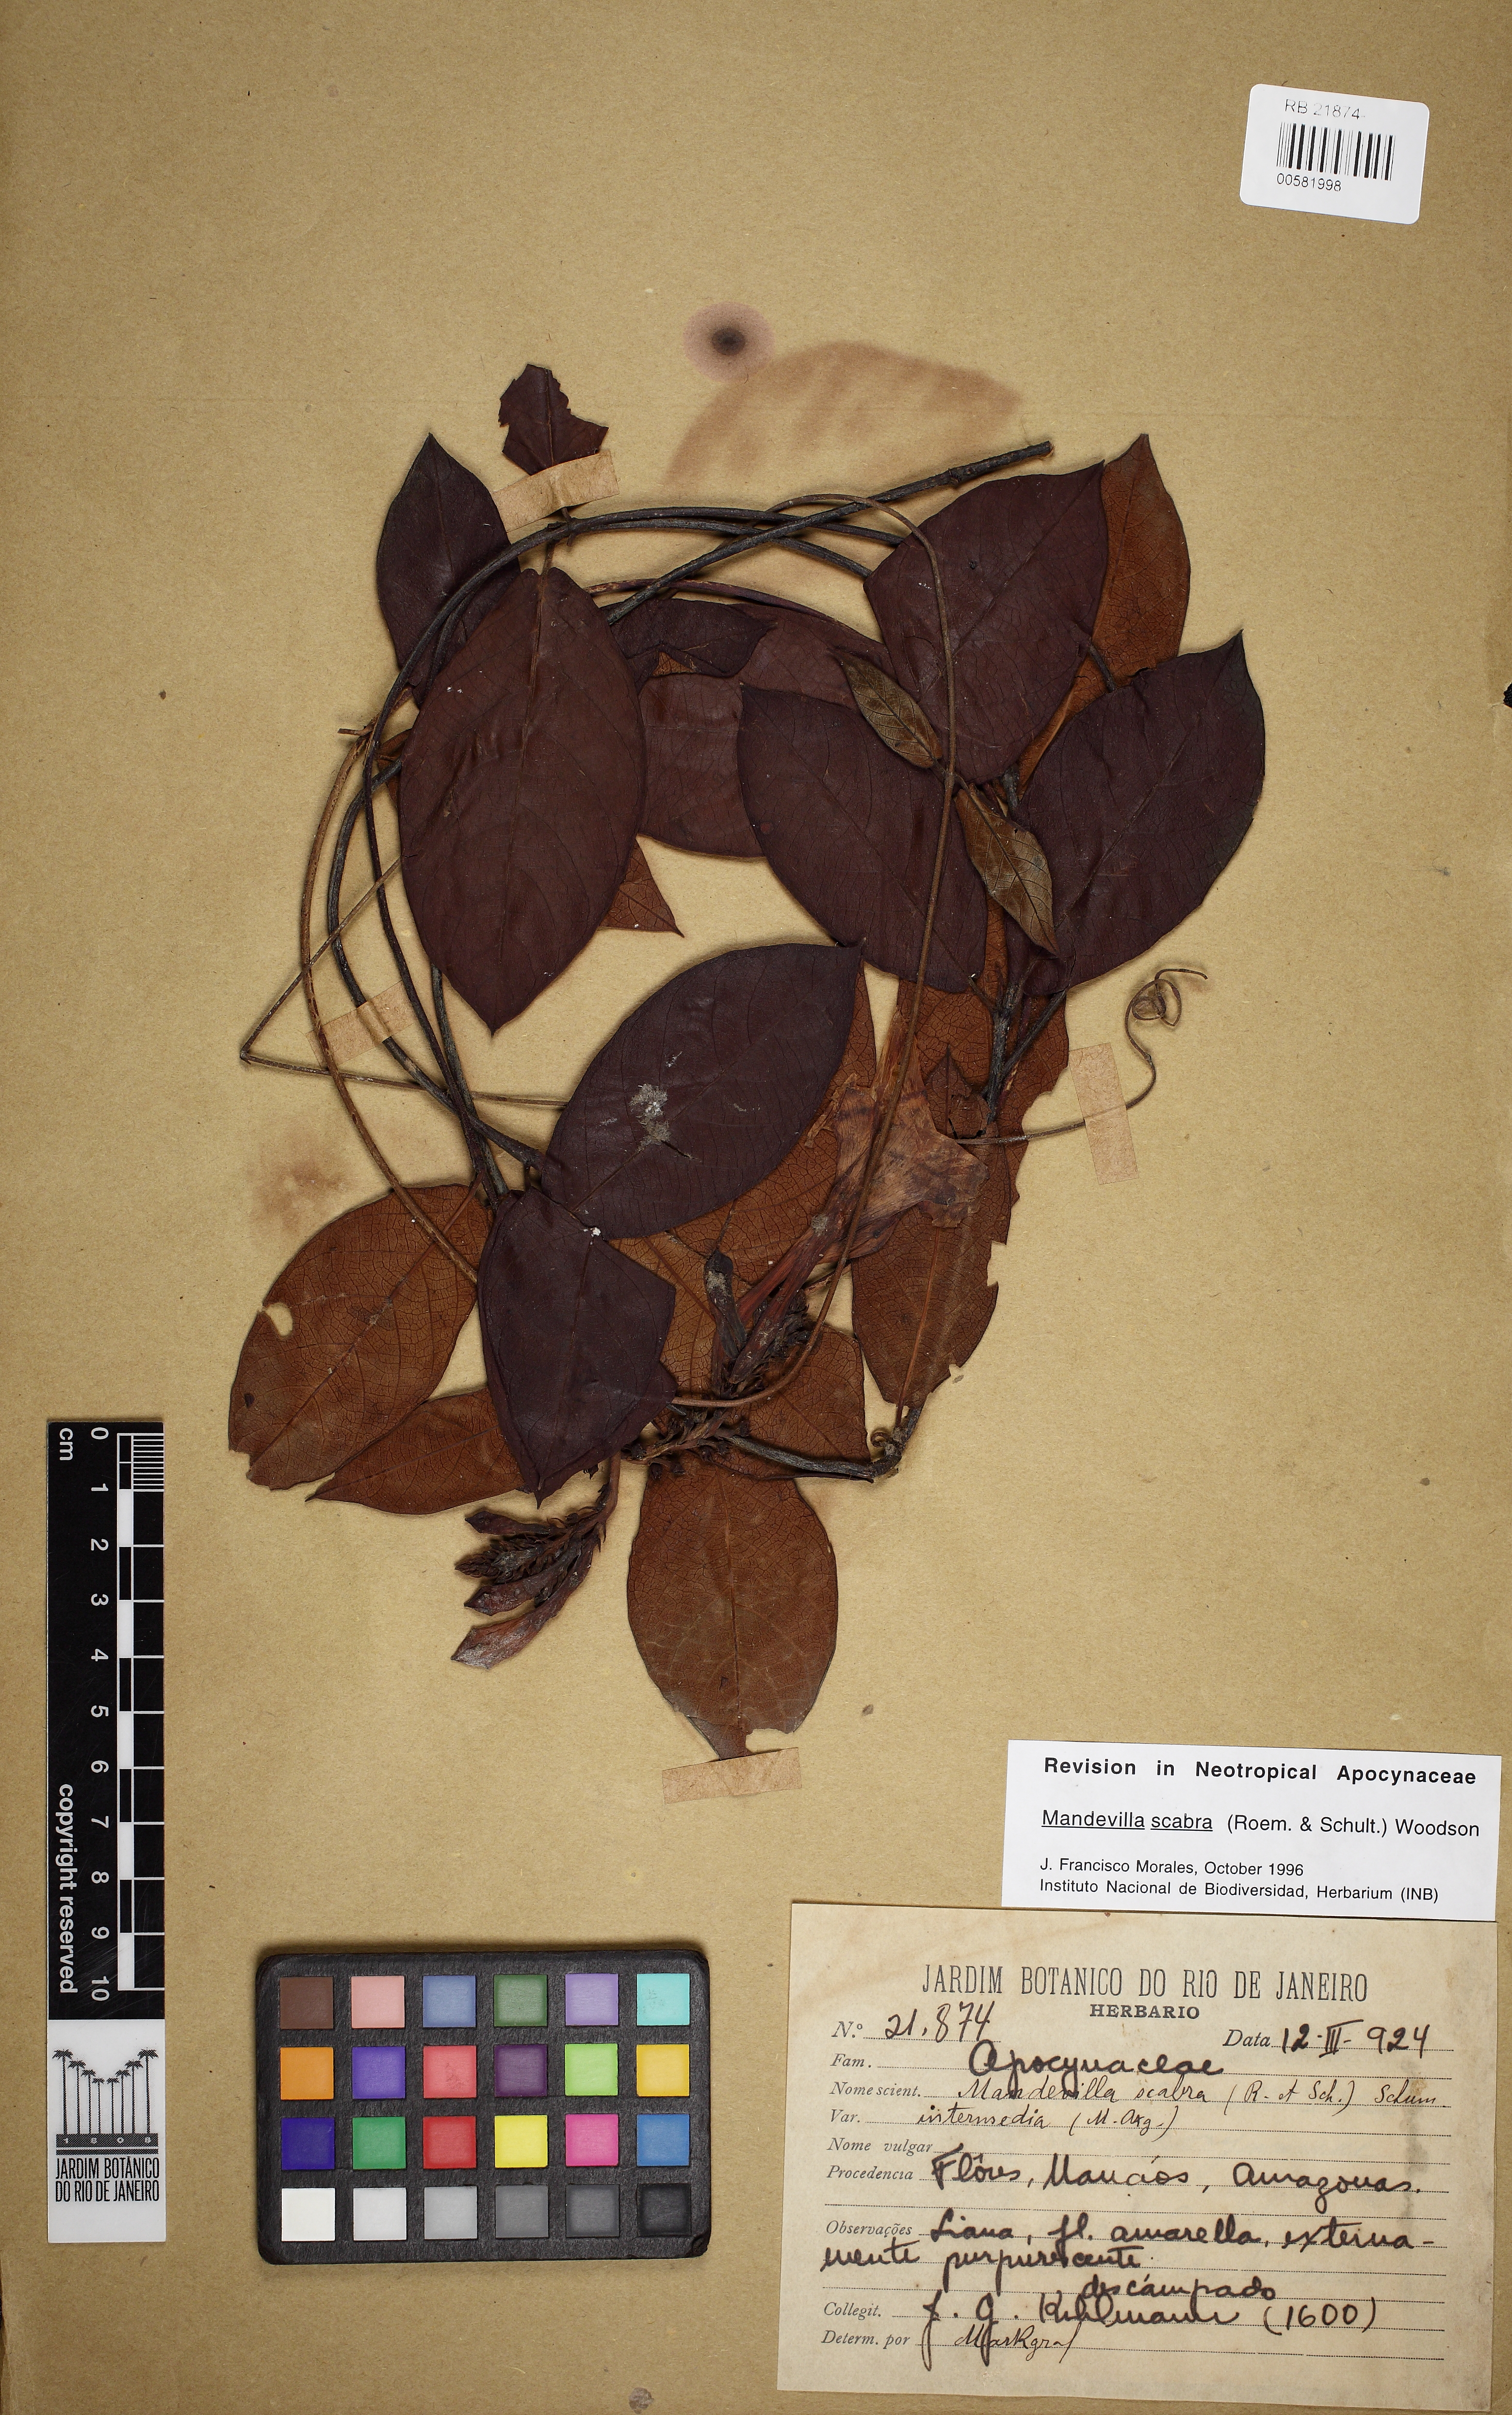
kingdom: Plantae
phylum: Tracheophyta
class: Magnoliopsida
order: Gentianales
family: Apocynaceae
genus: Mandevilla
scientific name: Mandevilla scabra
